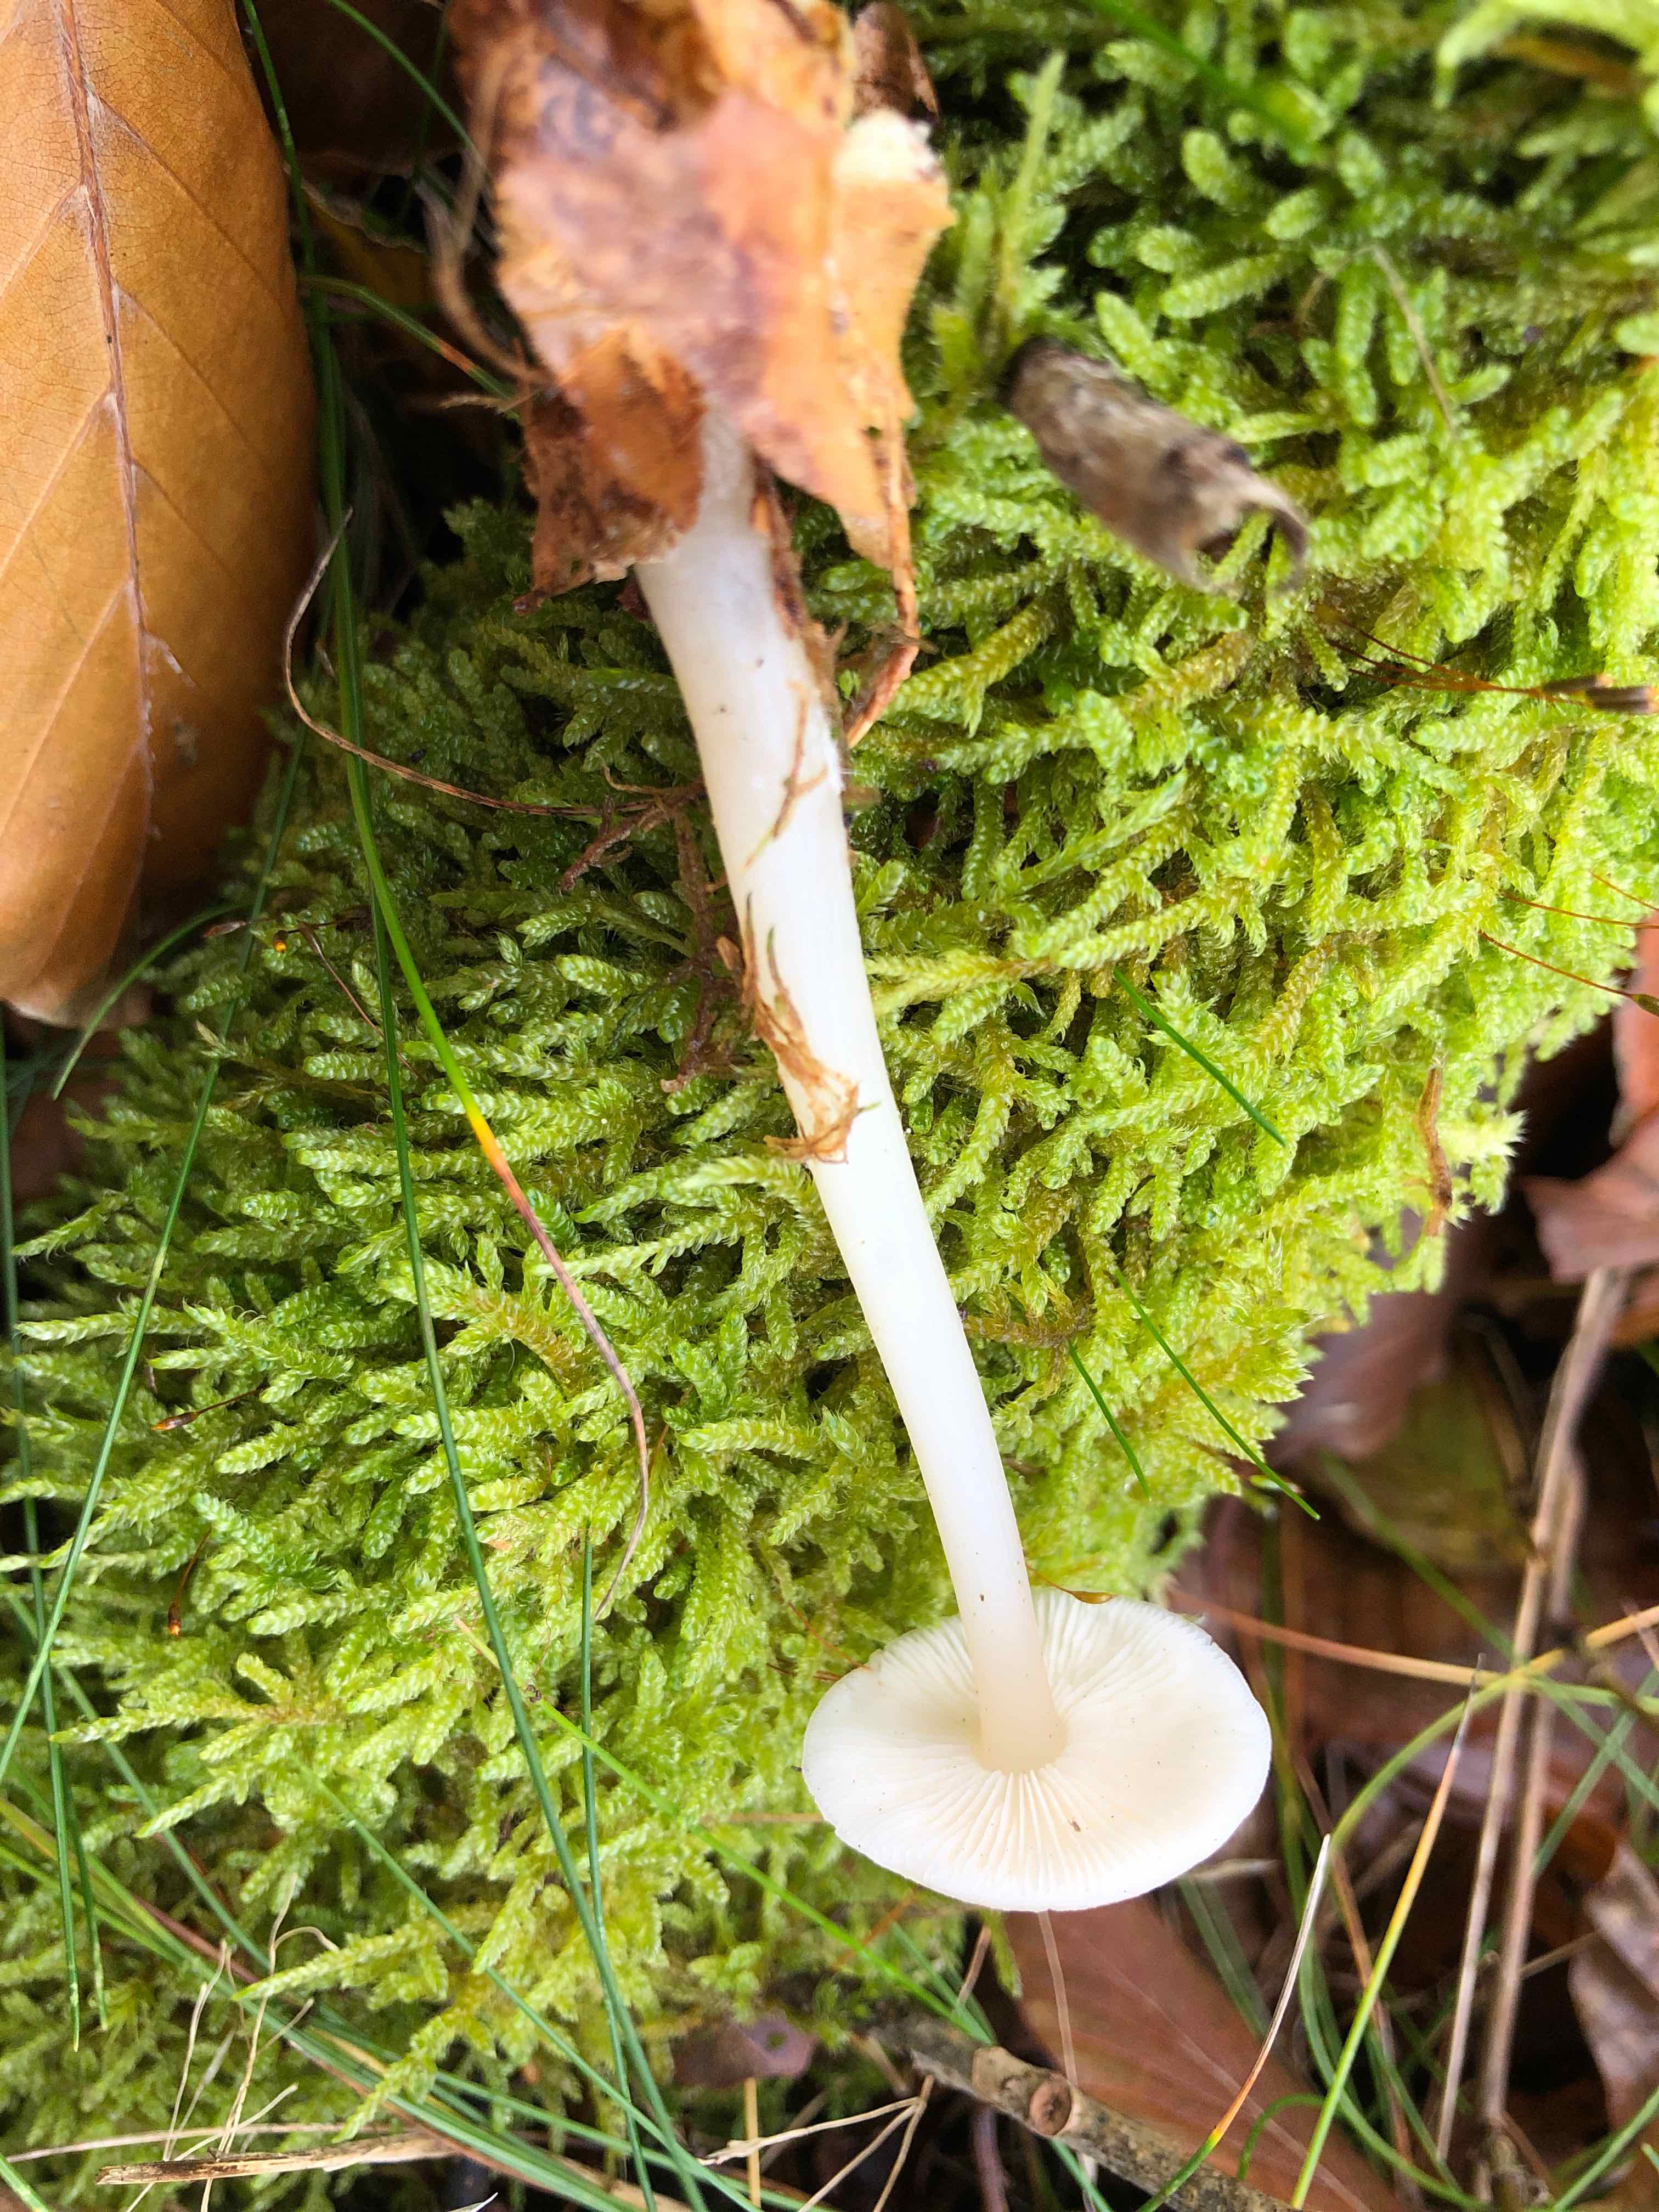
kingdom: Fungi
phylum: Basidiomycota
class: Agaricomycetes
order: Agaricales
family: Tricholomataceae
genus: Clitocybe
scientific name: Clitocybe fragrans
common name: vellugtende tragthat
